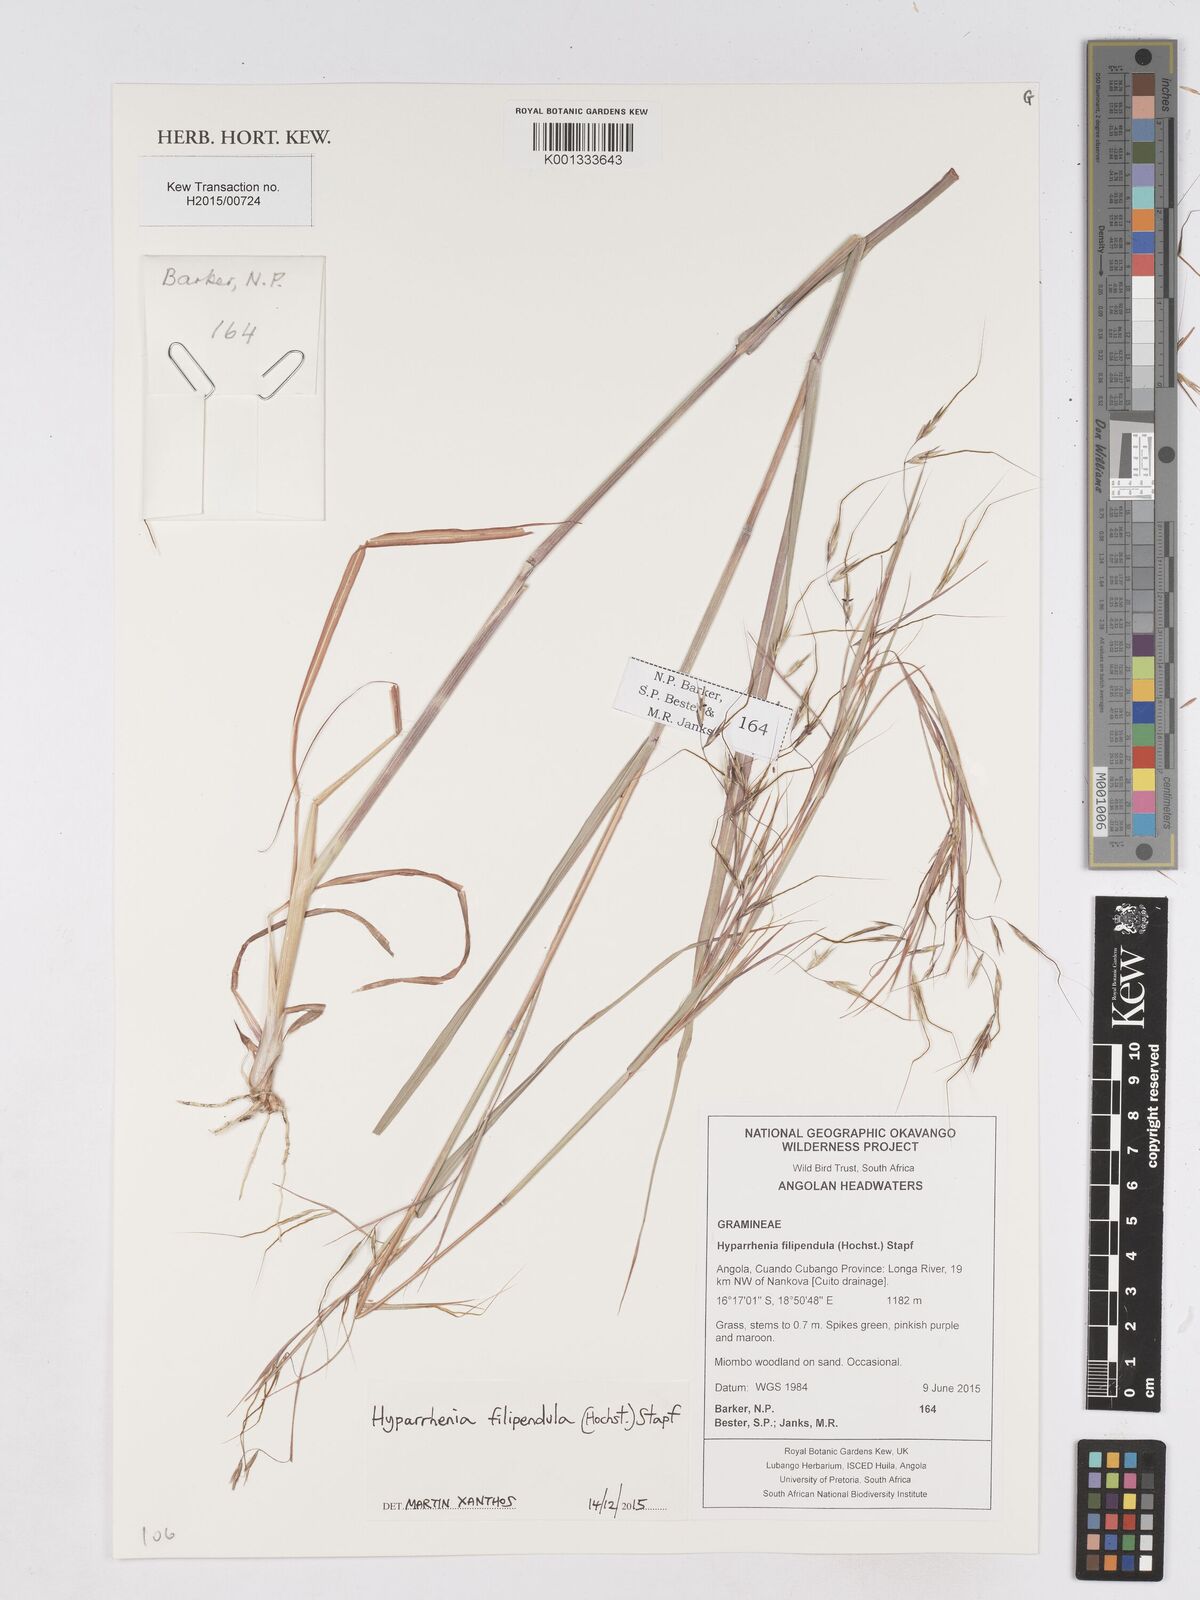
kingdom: Plantae
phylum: Tracheophyta
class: Liliopsida
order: Poales
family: Poaceae
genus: Hyparrhenia
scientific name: Hyparrhenia filipendula
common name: Tambookie grass
